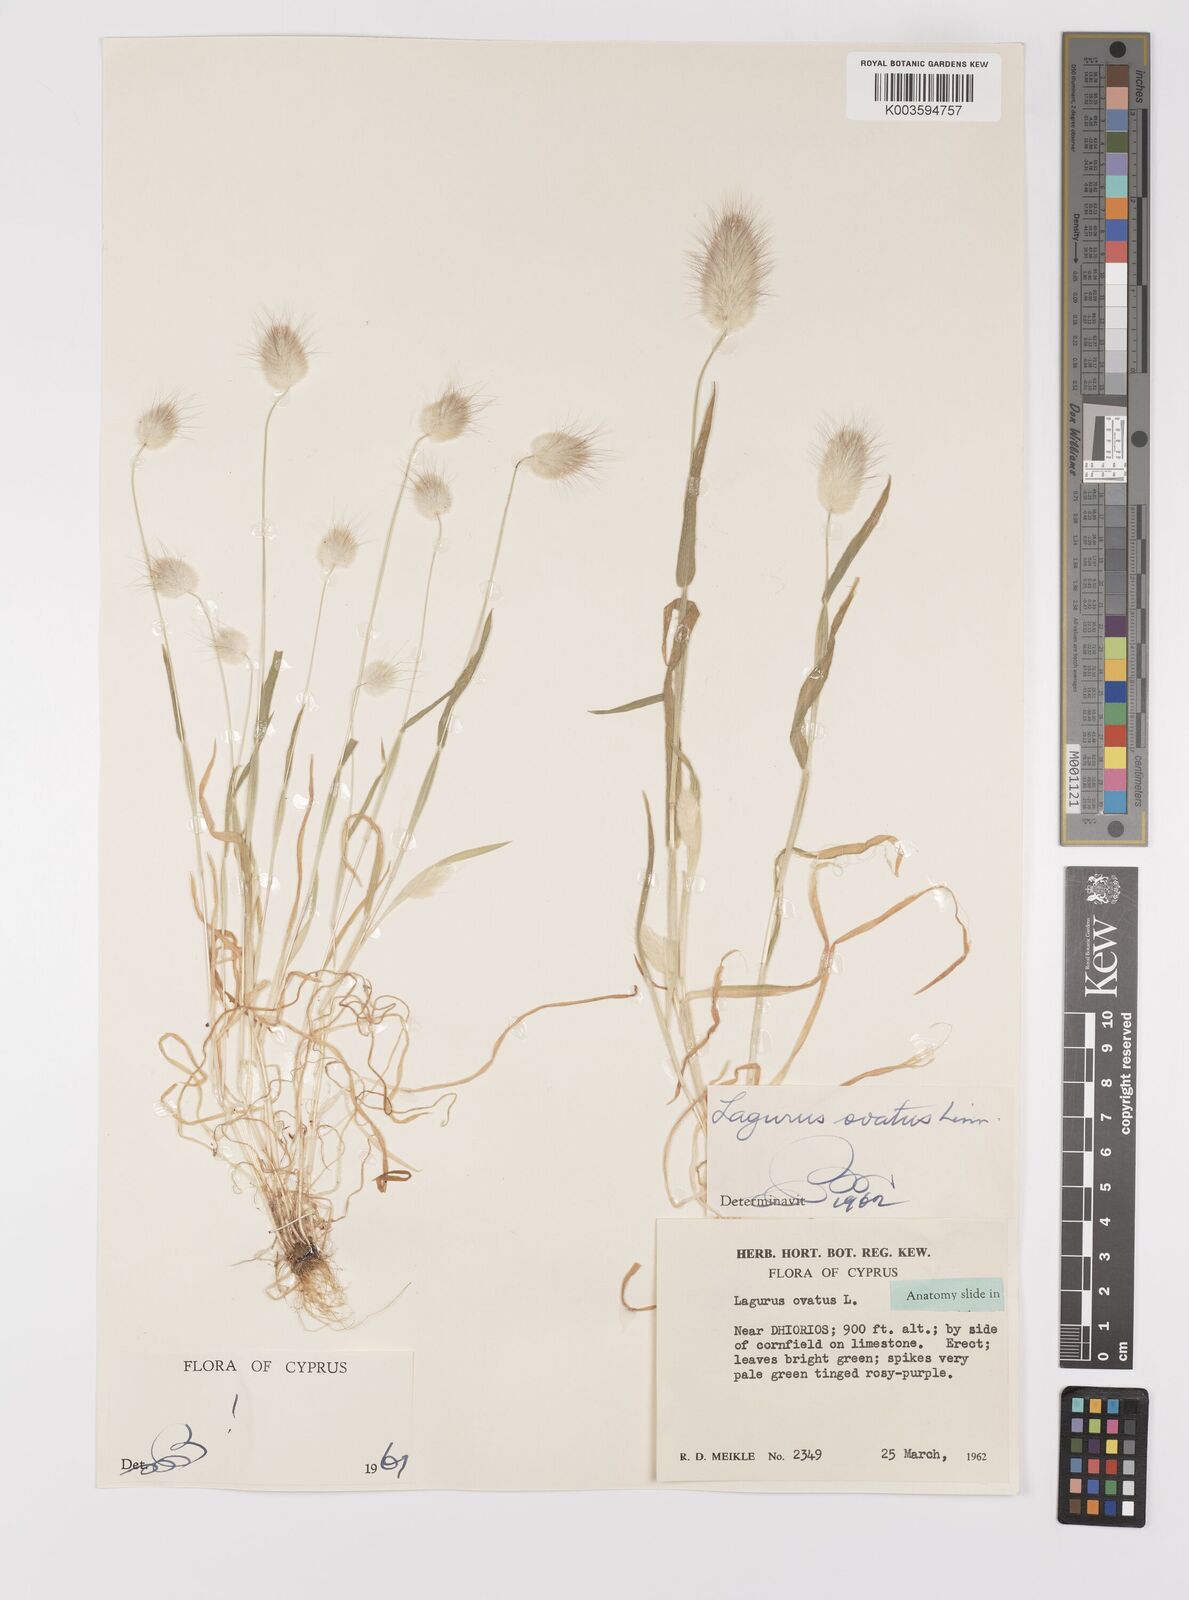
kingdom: Plantae
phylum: Tracheophyta
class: Liliopsida
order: Poales
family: Poaceae
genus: Lagurus
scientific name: Lagurus ovatus
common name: Hare's-tail
